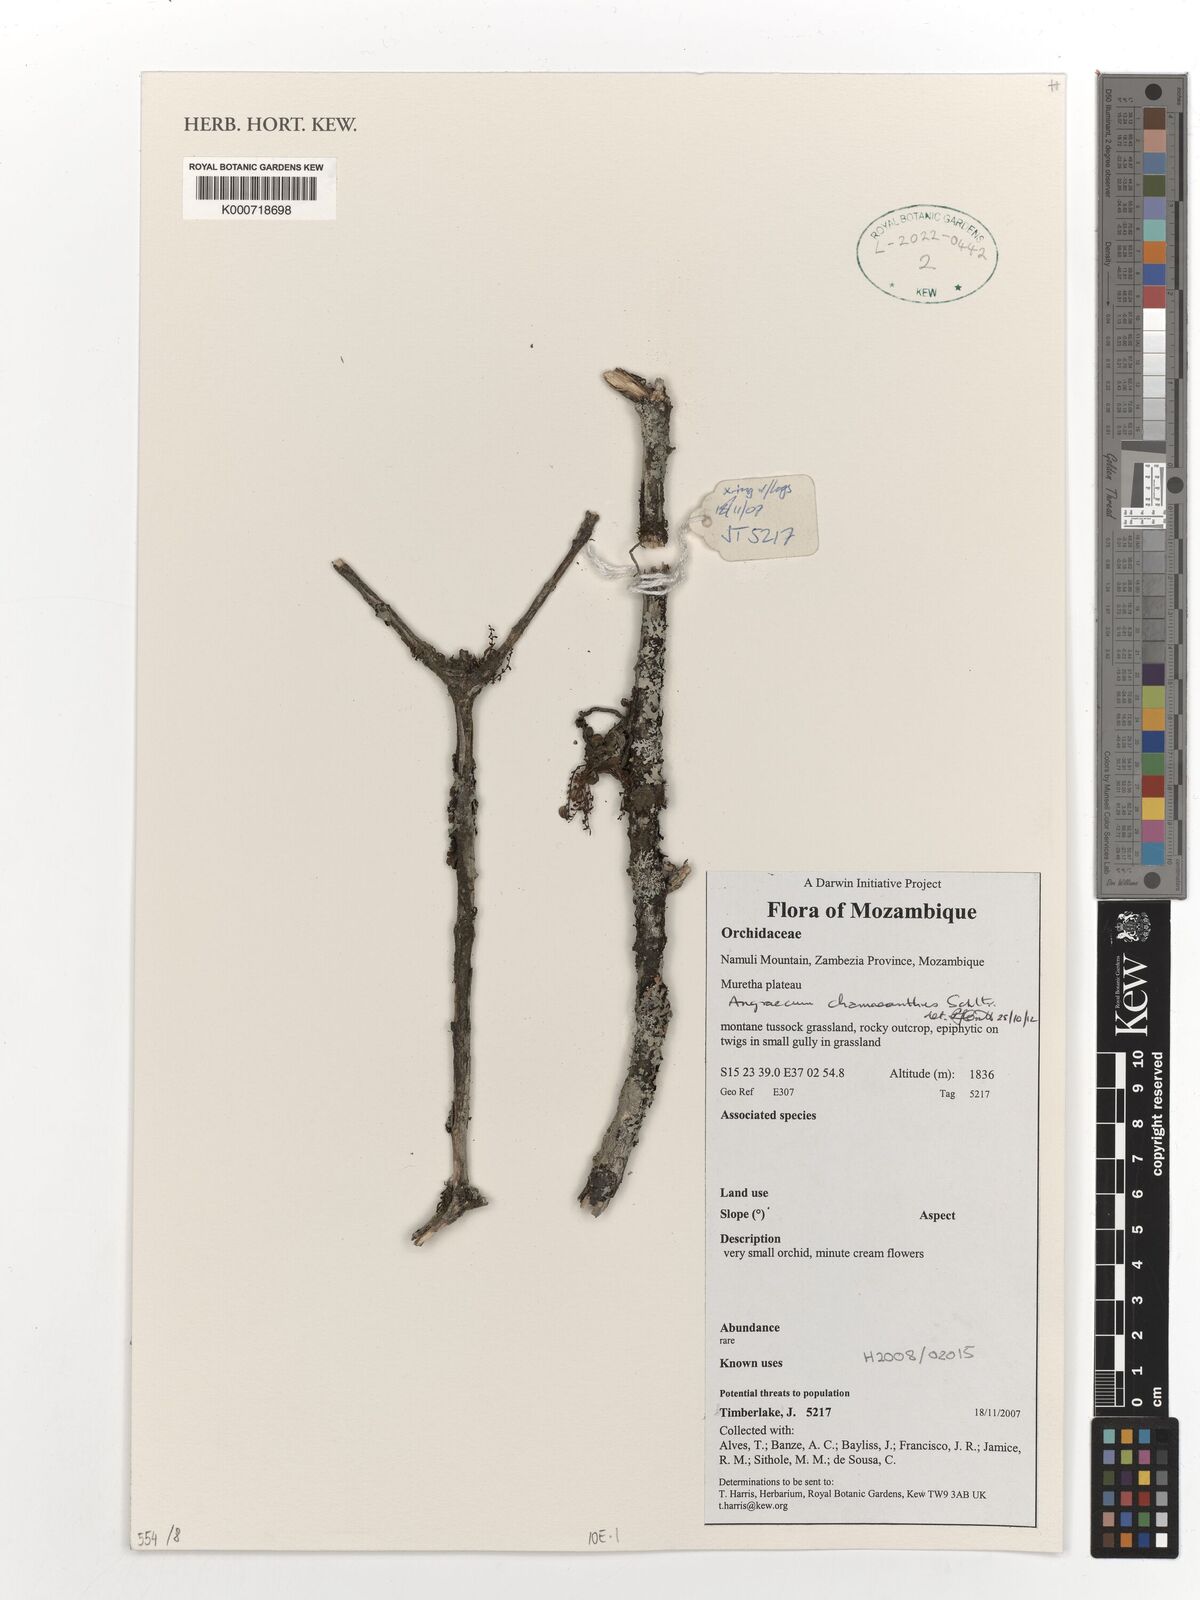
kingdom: Plantae
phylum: Tracheophyta
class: Liliopsida
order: Asparagales
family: Orchidaceae
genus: Angraecum
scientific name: Angraecum chamaeanthus
